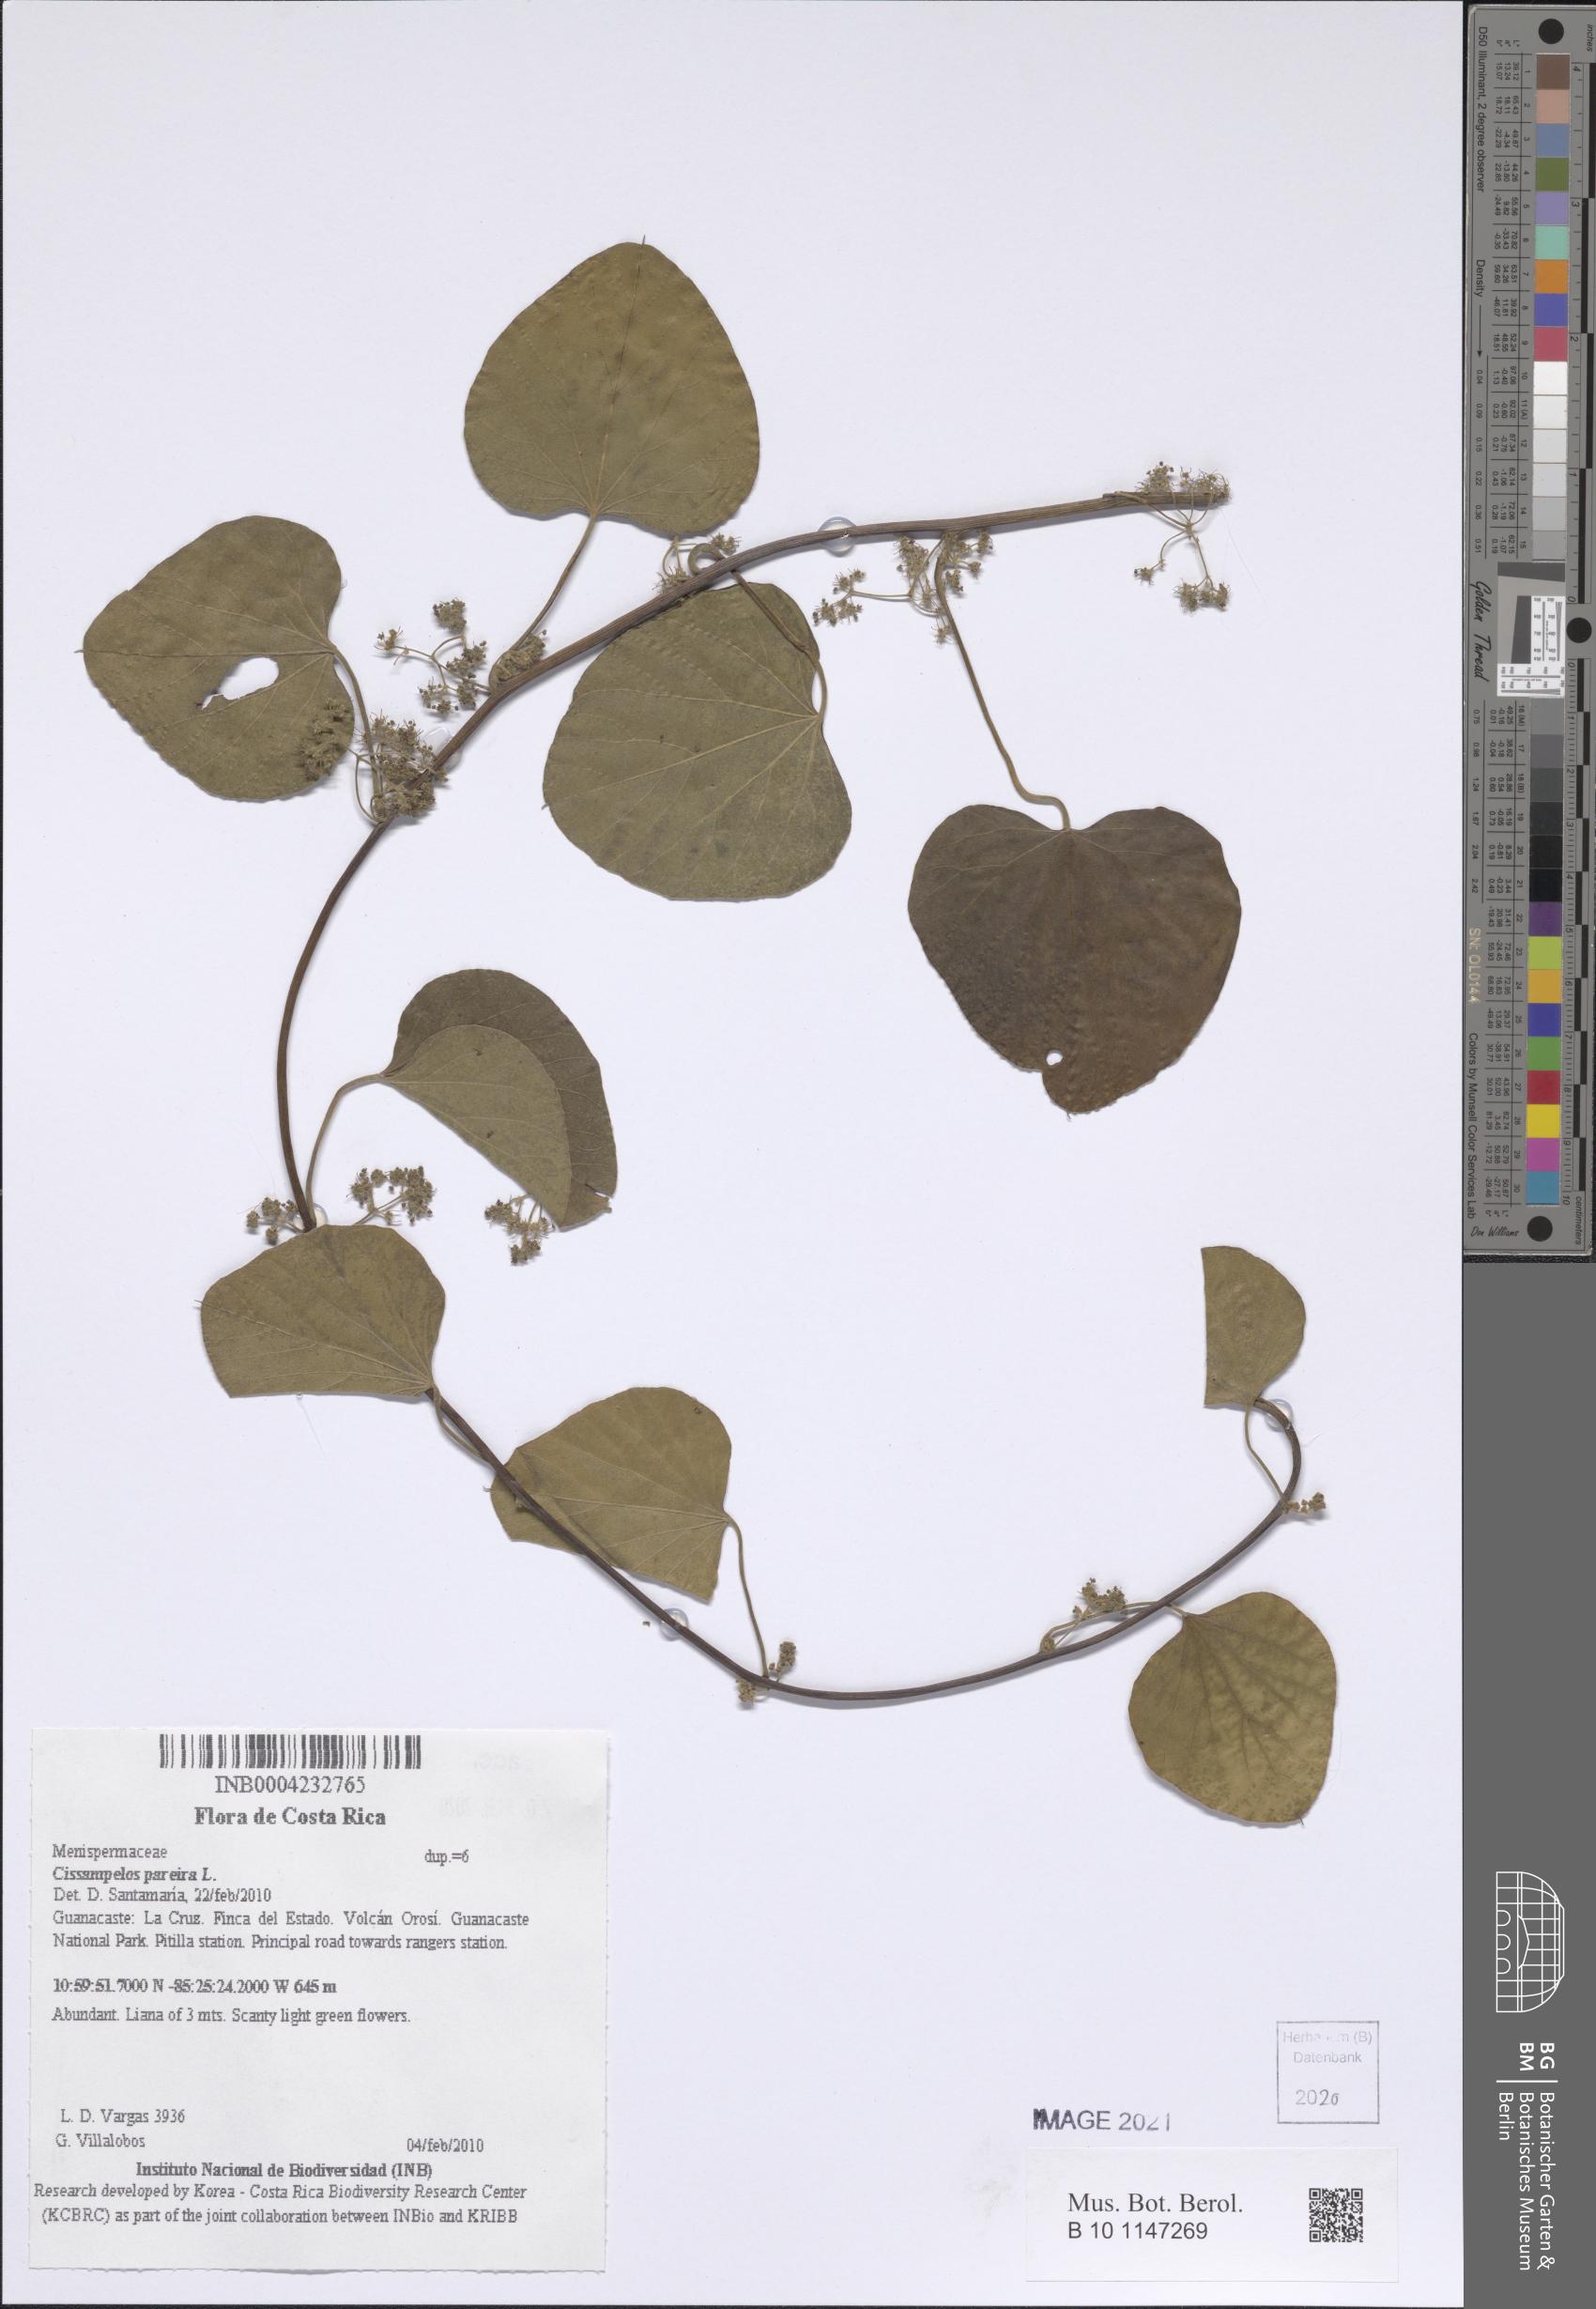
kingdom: Plantae
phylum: Tracheophyta
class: Magnoliopsida
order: Ranunculales
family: Menispermaceae
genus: Cissampelos
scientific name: Cissampelos pareira
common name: Velvetleaf
